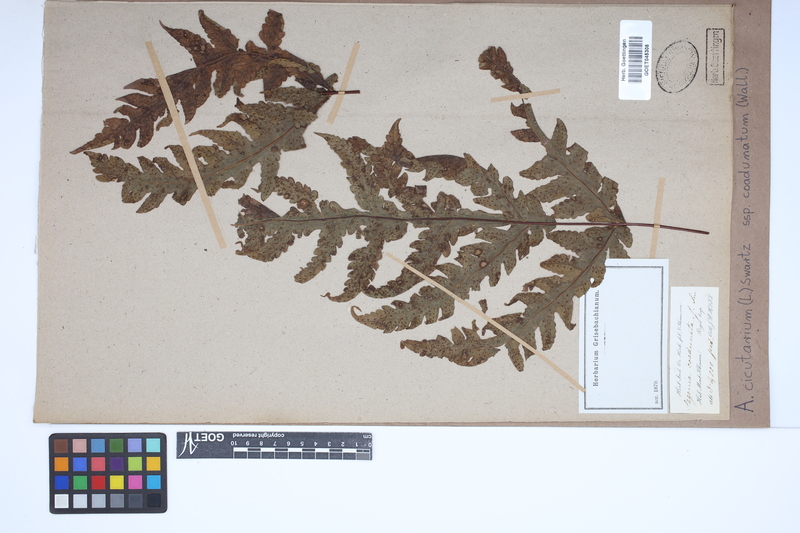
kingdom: Plantae
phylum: Tracheophyta
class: Polypodiopsida
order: Polypodiales
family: Tectariaceae
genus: Tectaria
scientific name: Tectaria cicutaria
